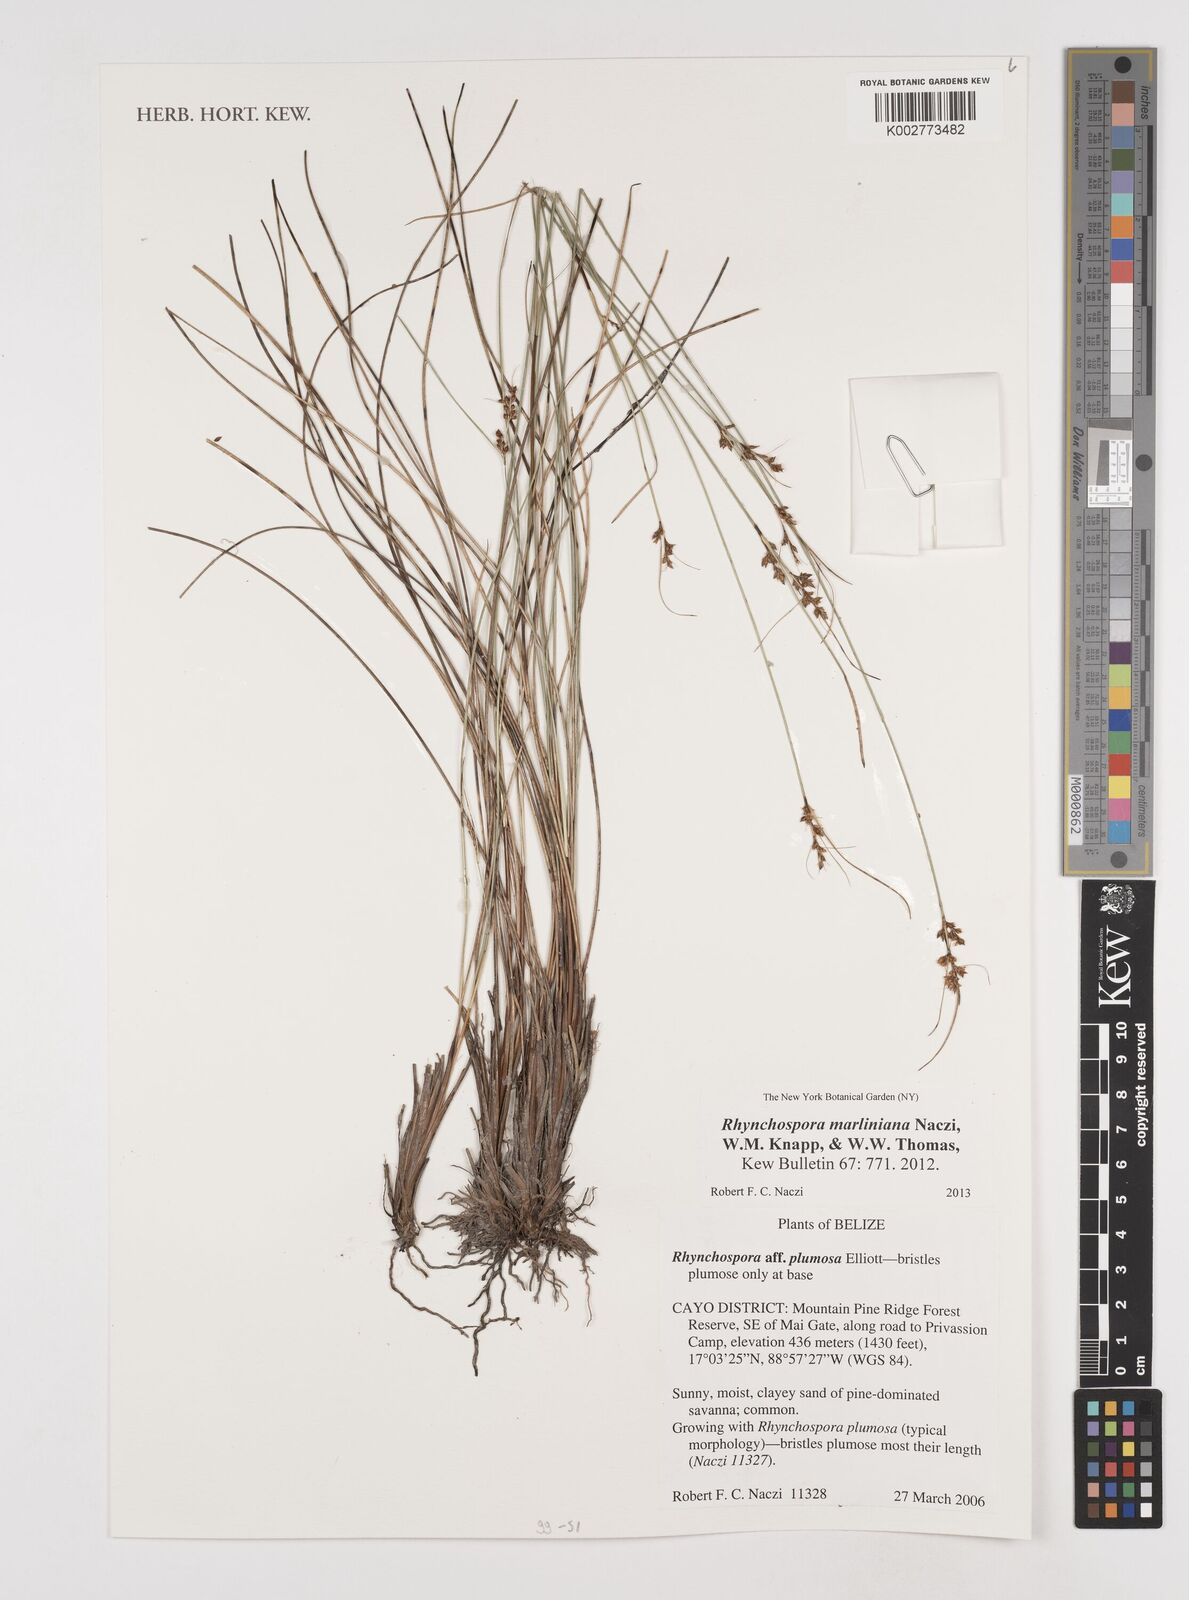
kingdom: Plantae
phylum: Tracheophyta
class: Liliopsida
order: Poales
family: Cyperaceae
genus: Rhynchospora
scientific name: Rhynchospora tenuiflora
